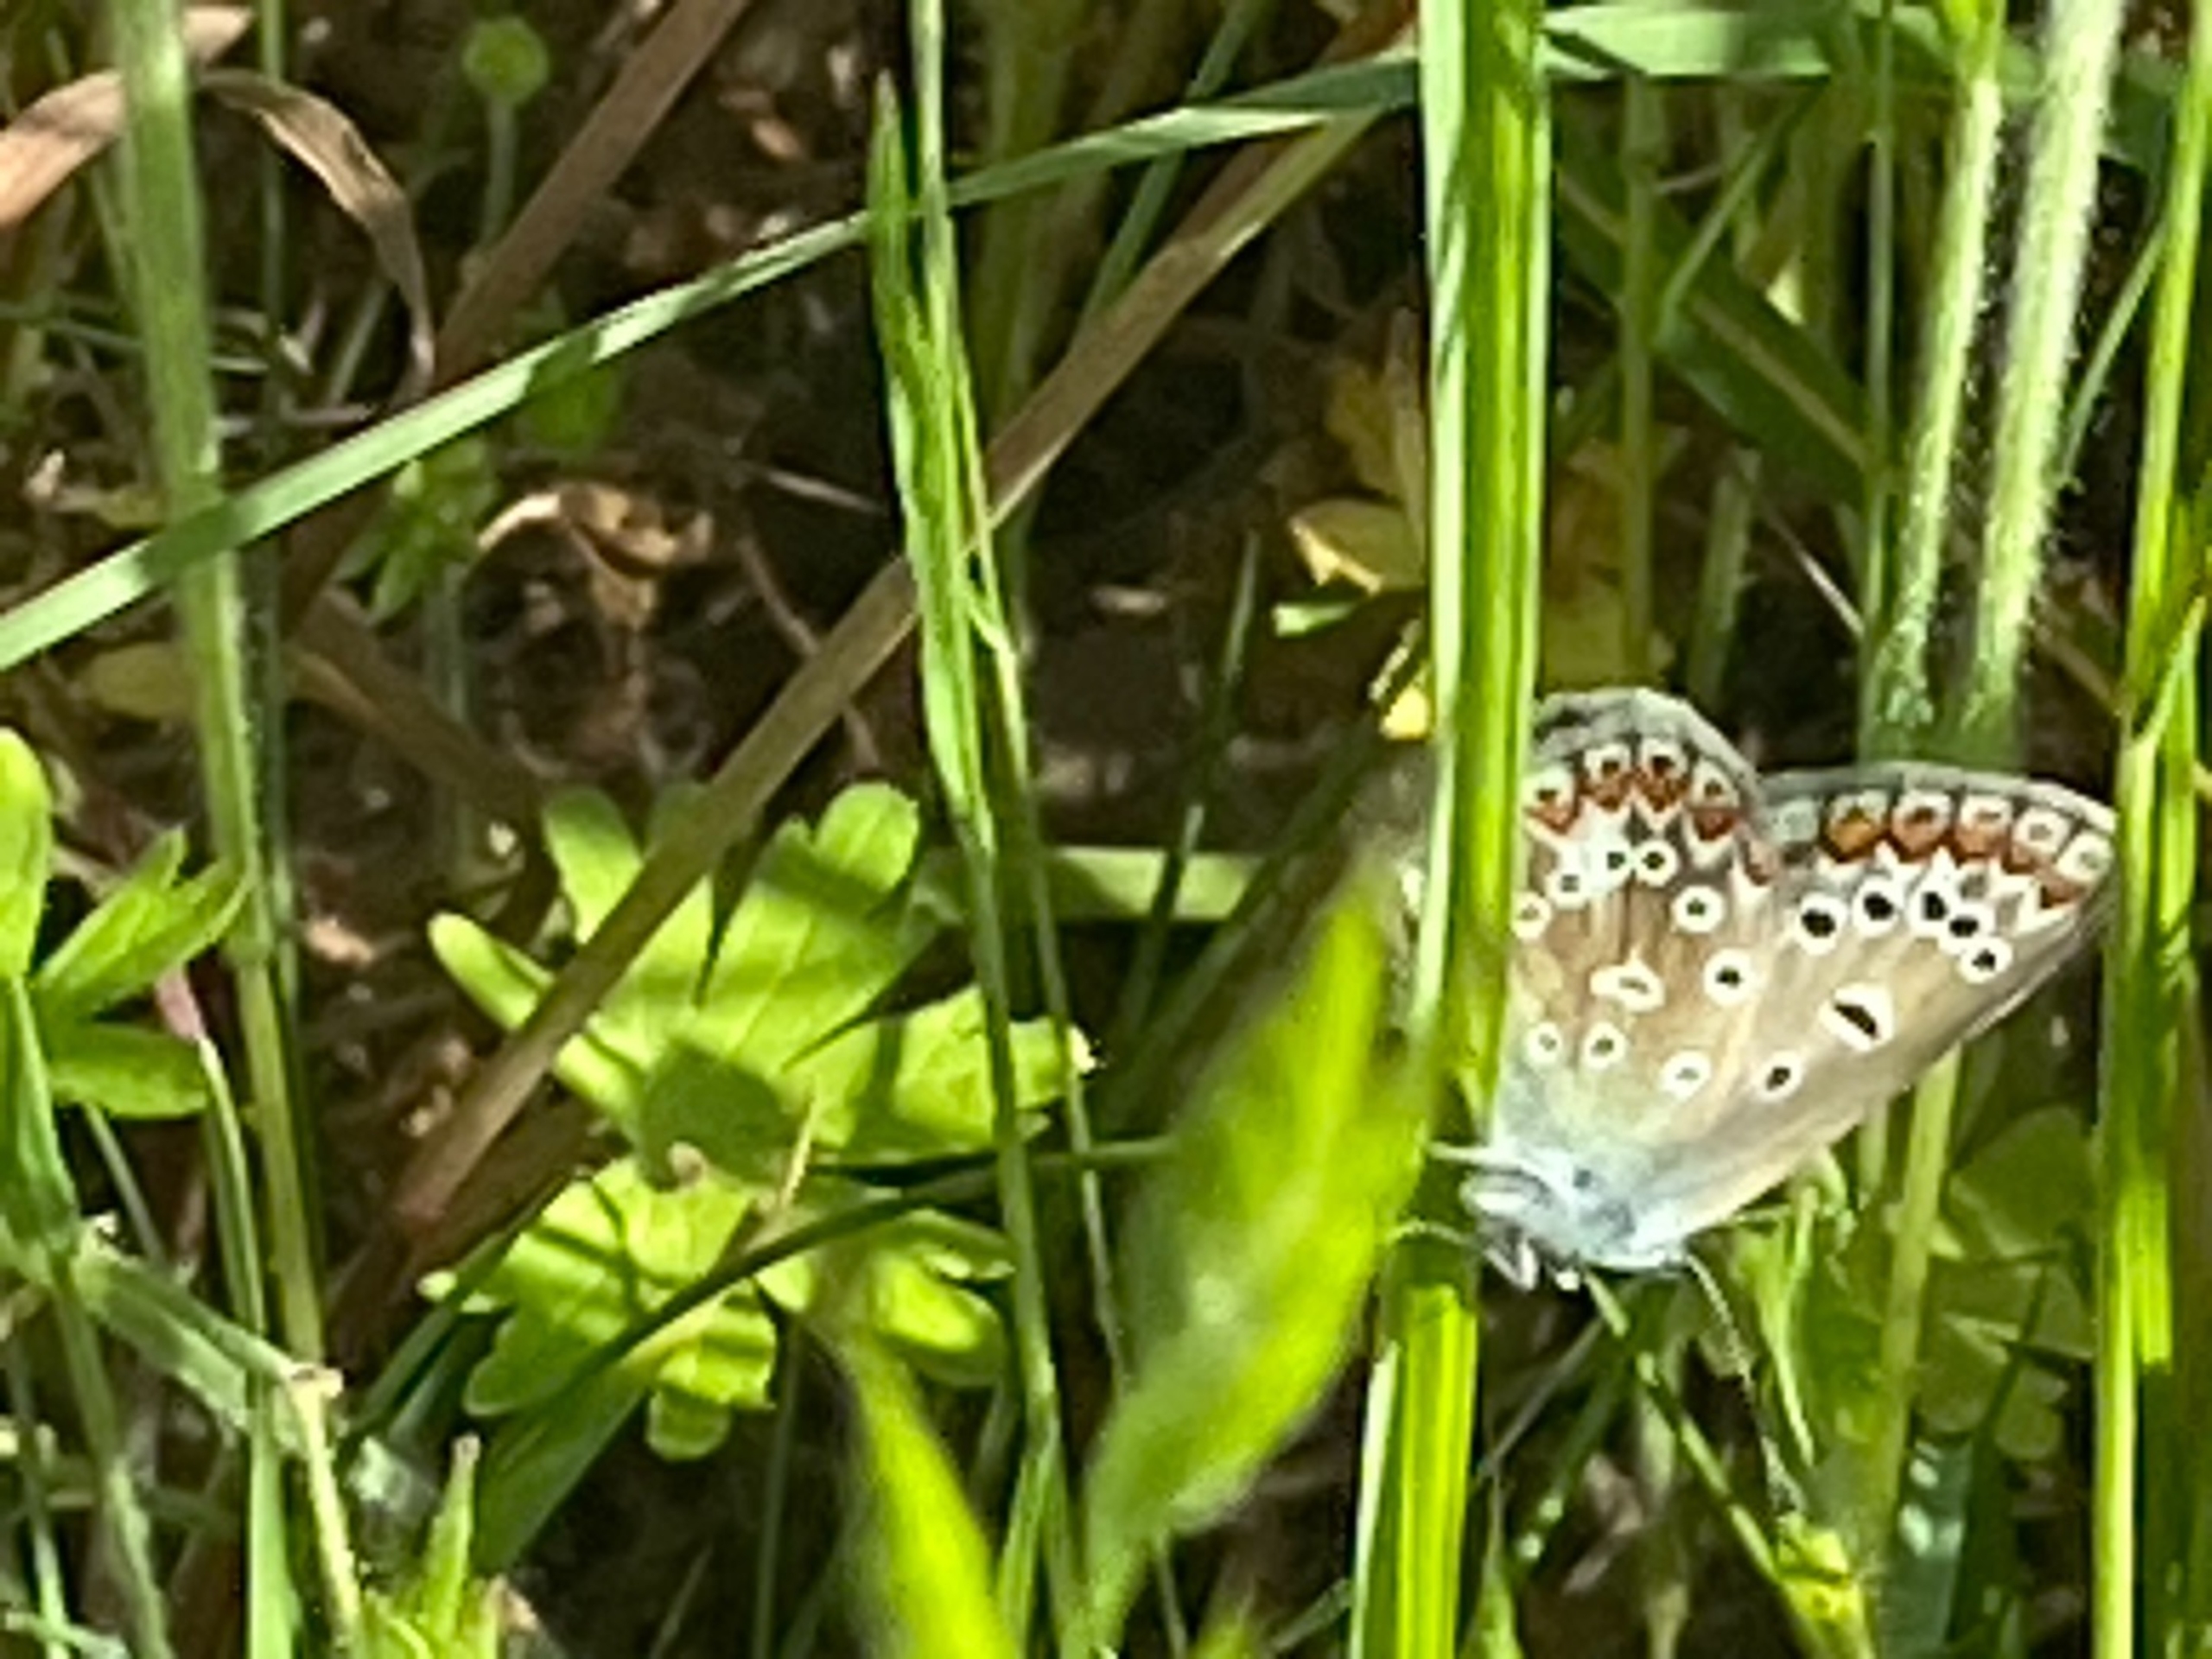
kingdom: Animalia
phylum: Arthropoda
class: Insecta
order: Lepidoptera
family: Lycaenidae
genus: Polyommatus
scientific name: Polyommatus icarus
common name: Almindelig blåfugl
